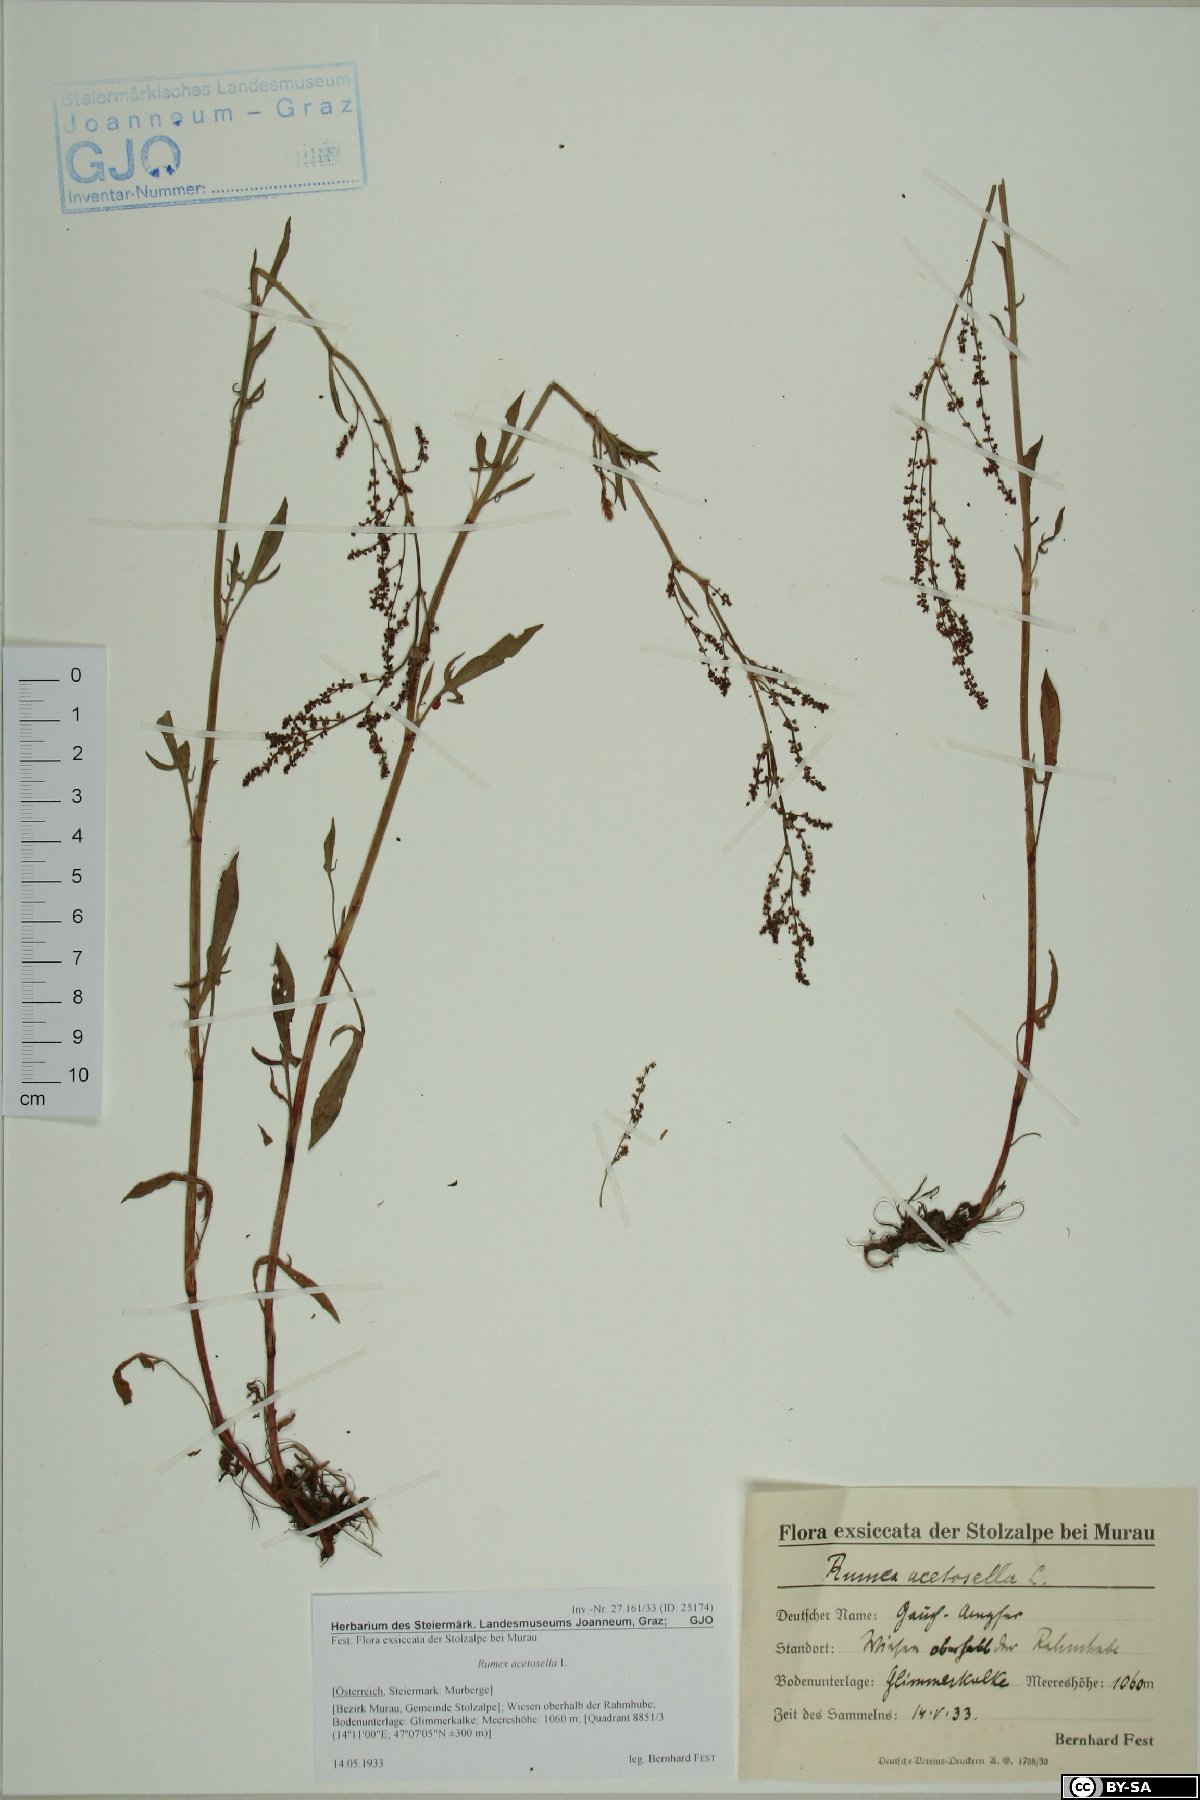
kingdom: Plantae
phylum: Tracheophyta
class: Magnoliopsida
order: Caryophyllales
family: Polygonaceae
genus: Rumex
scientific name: Rumex acetosella
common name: Common sheep sorrel
